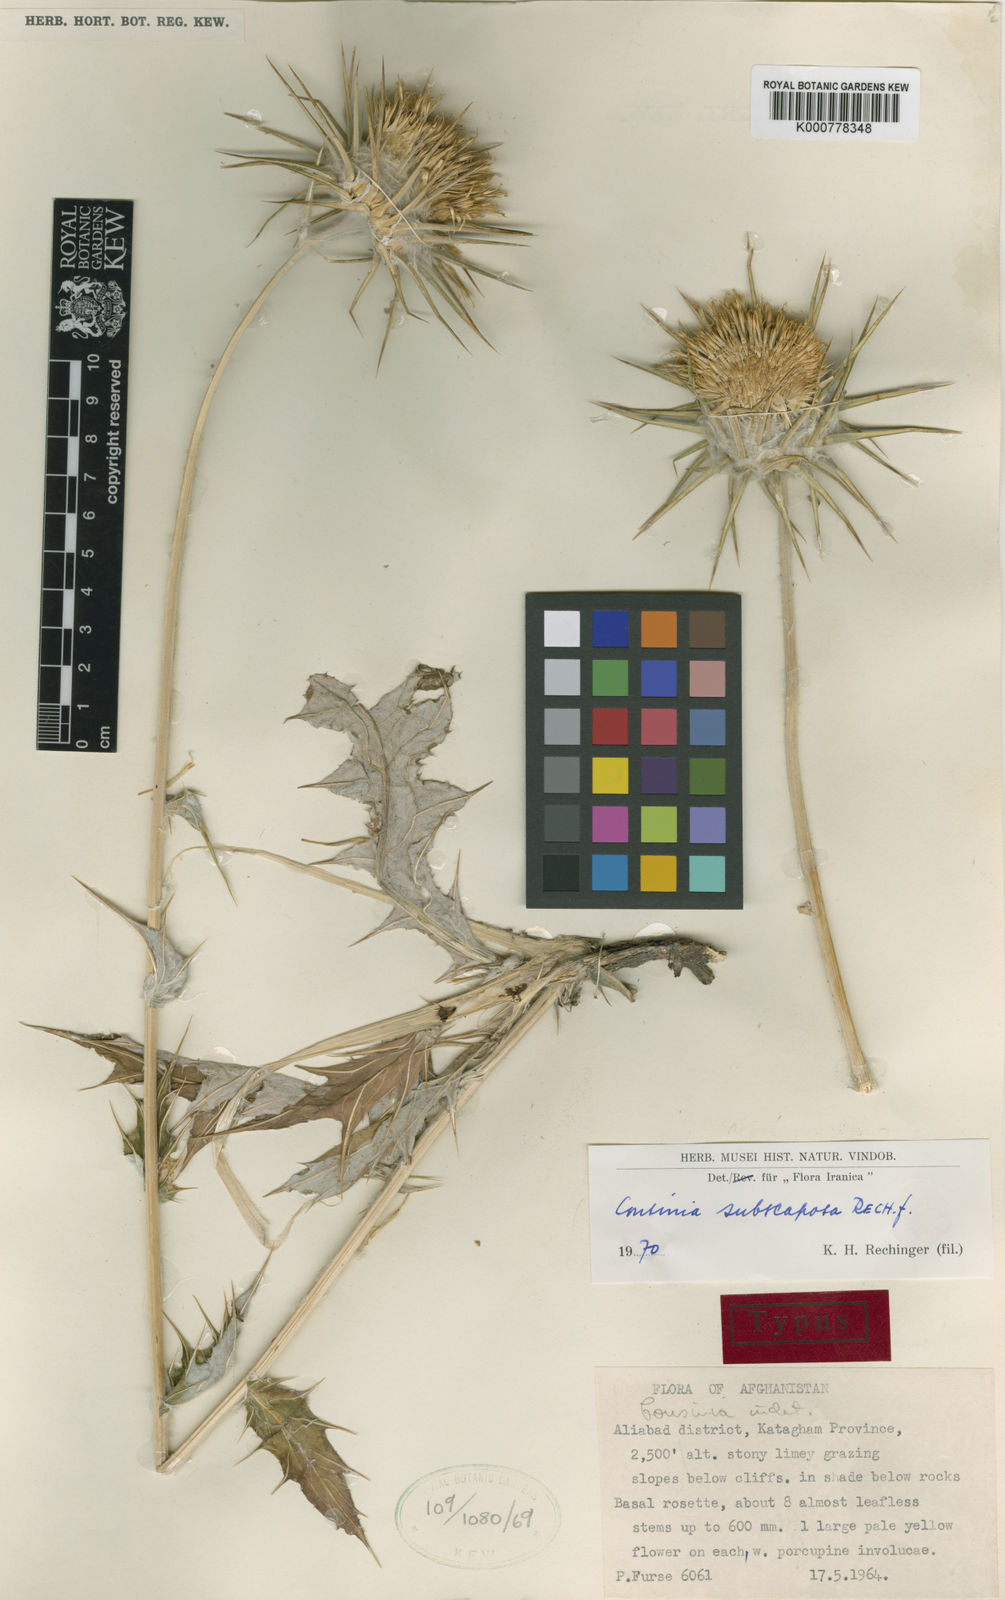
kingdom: Plantae
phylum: Tracheophyta
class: Magnoliopsida
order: Asterales
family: Asteraceae
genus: Cousinia
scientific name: Cousinia subscaposa
